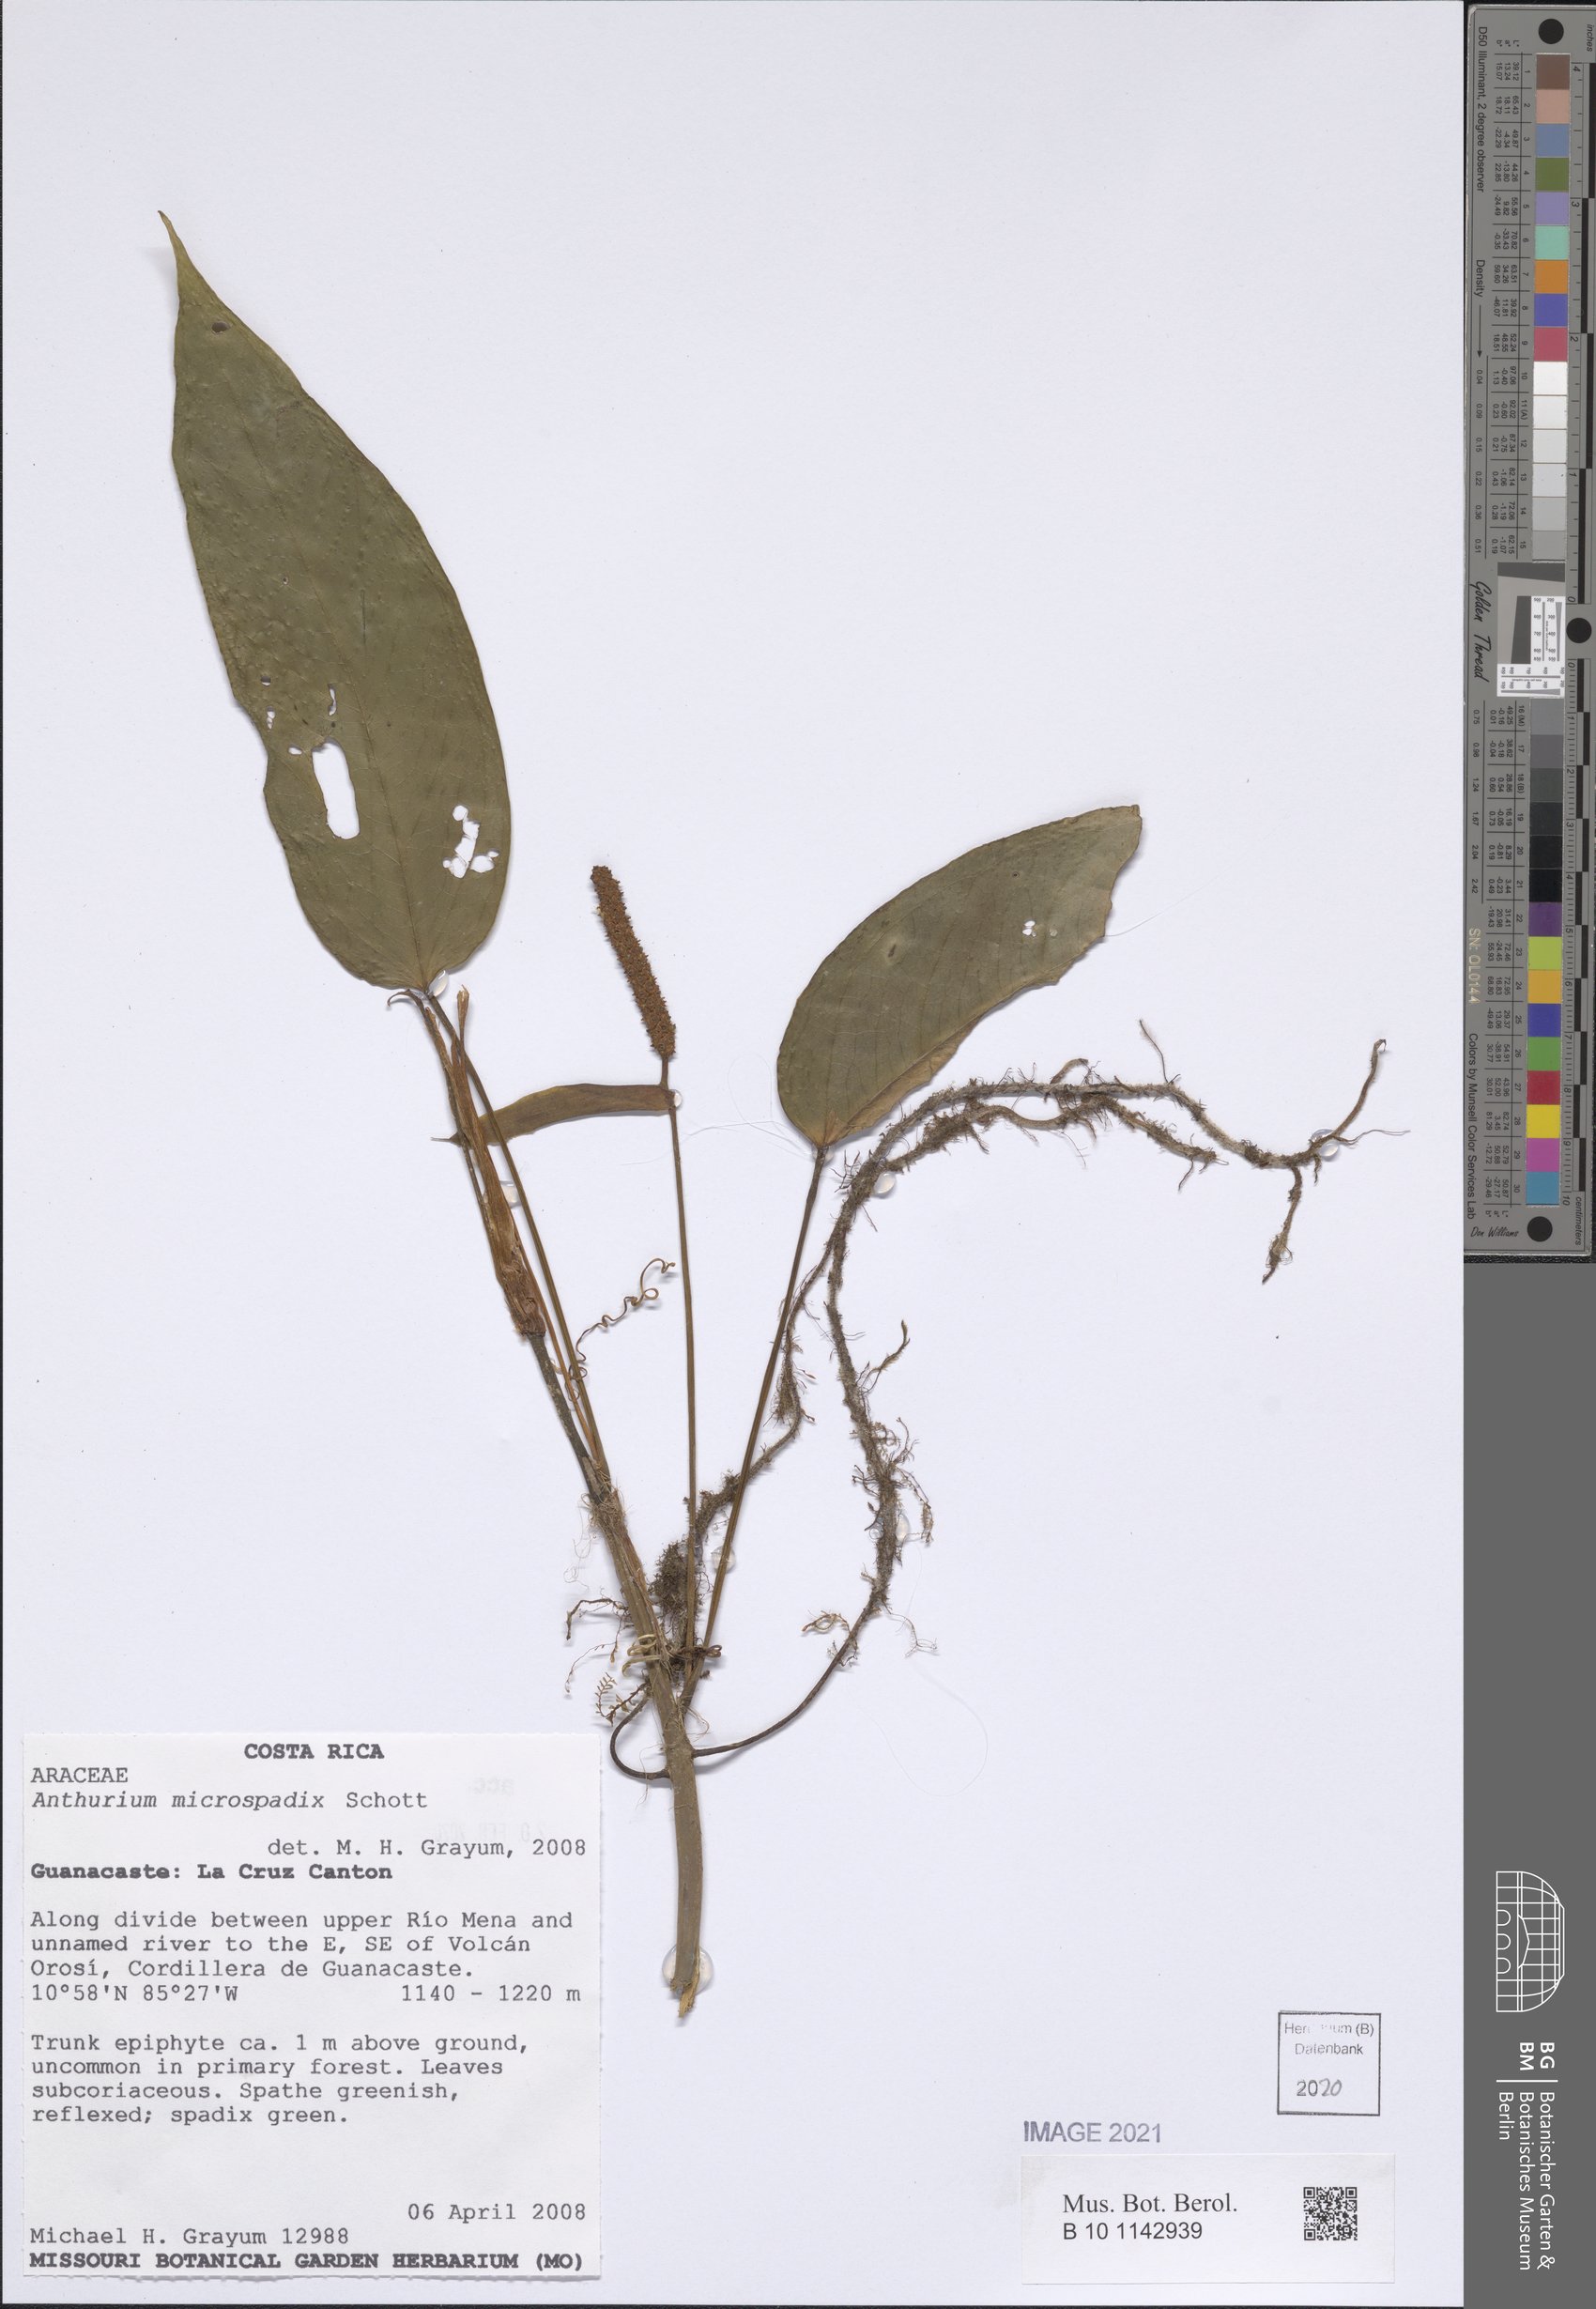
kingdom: Plantae
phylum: Tracheophyta
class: Liliopsida
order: Alismatales
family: Araceae
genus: Anthurium
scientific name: Anthurium microspadix
